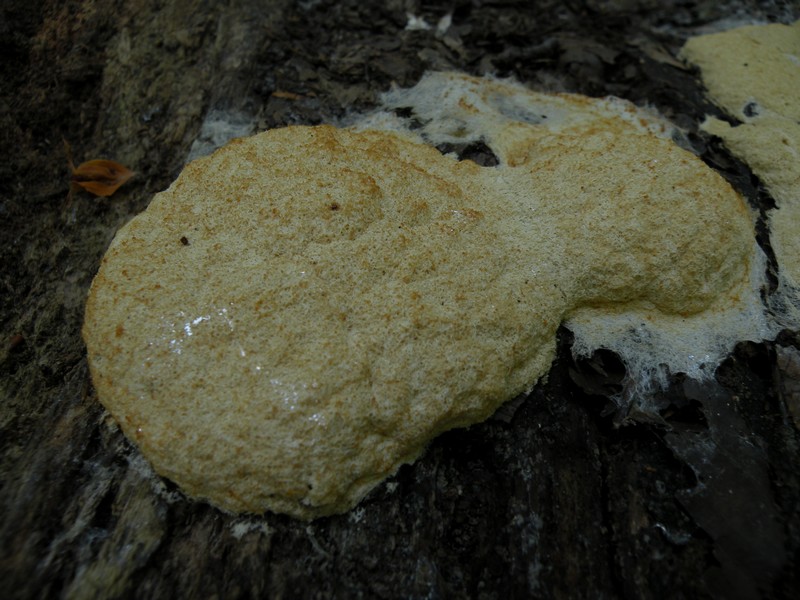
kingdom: Protozoa
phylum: Mycetozoa
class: Myxomycetes
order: Physarales
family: Physaraceae
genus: Fuligo
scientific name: Fuligo septica
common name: Dog vomit slime mold
